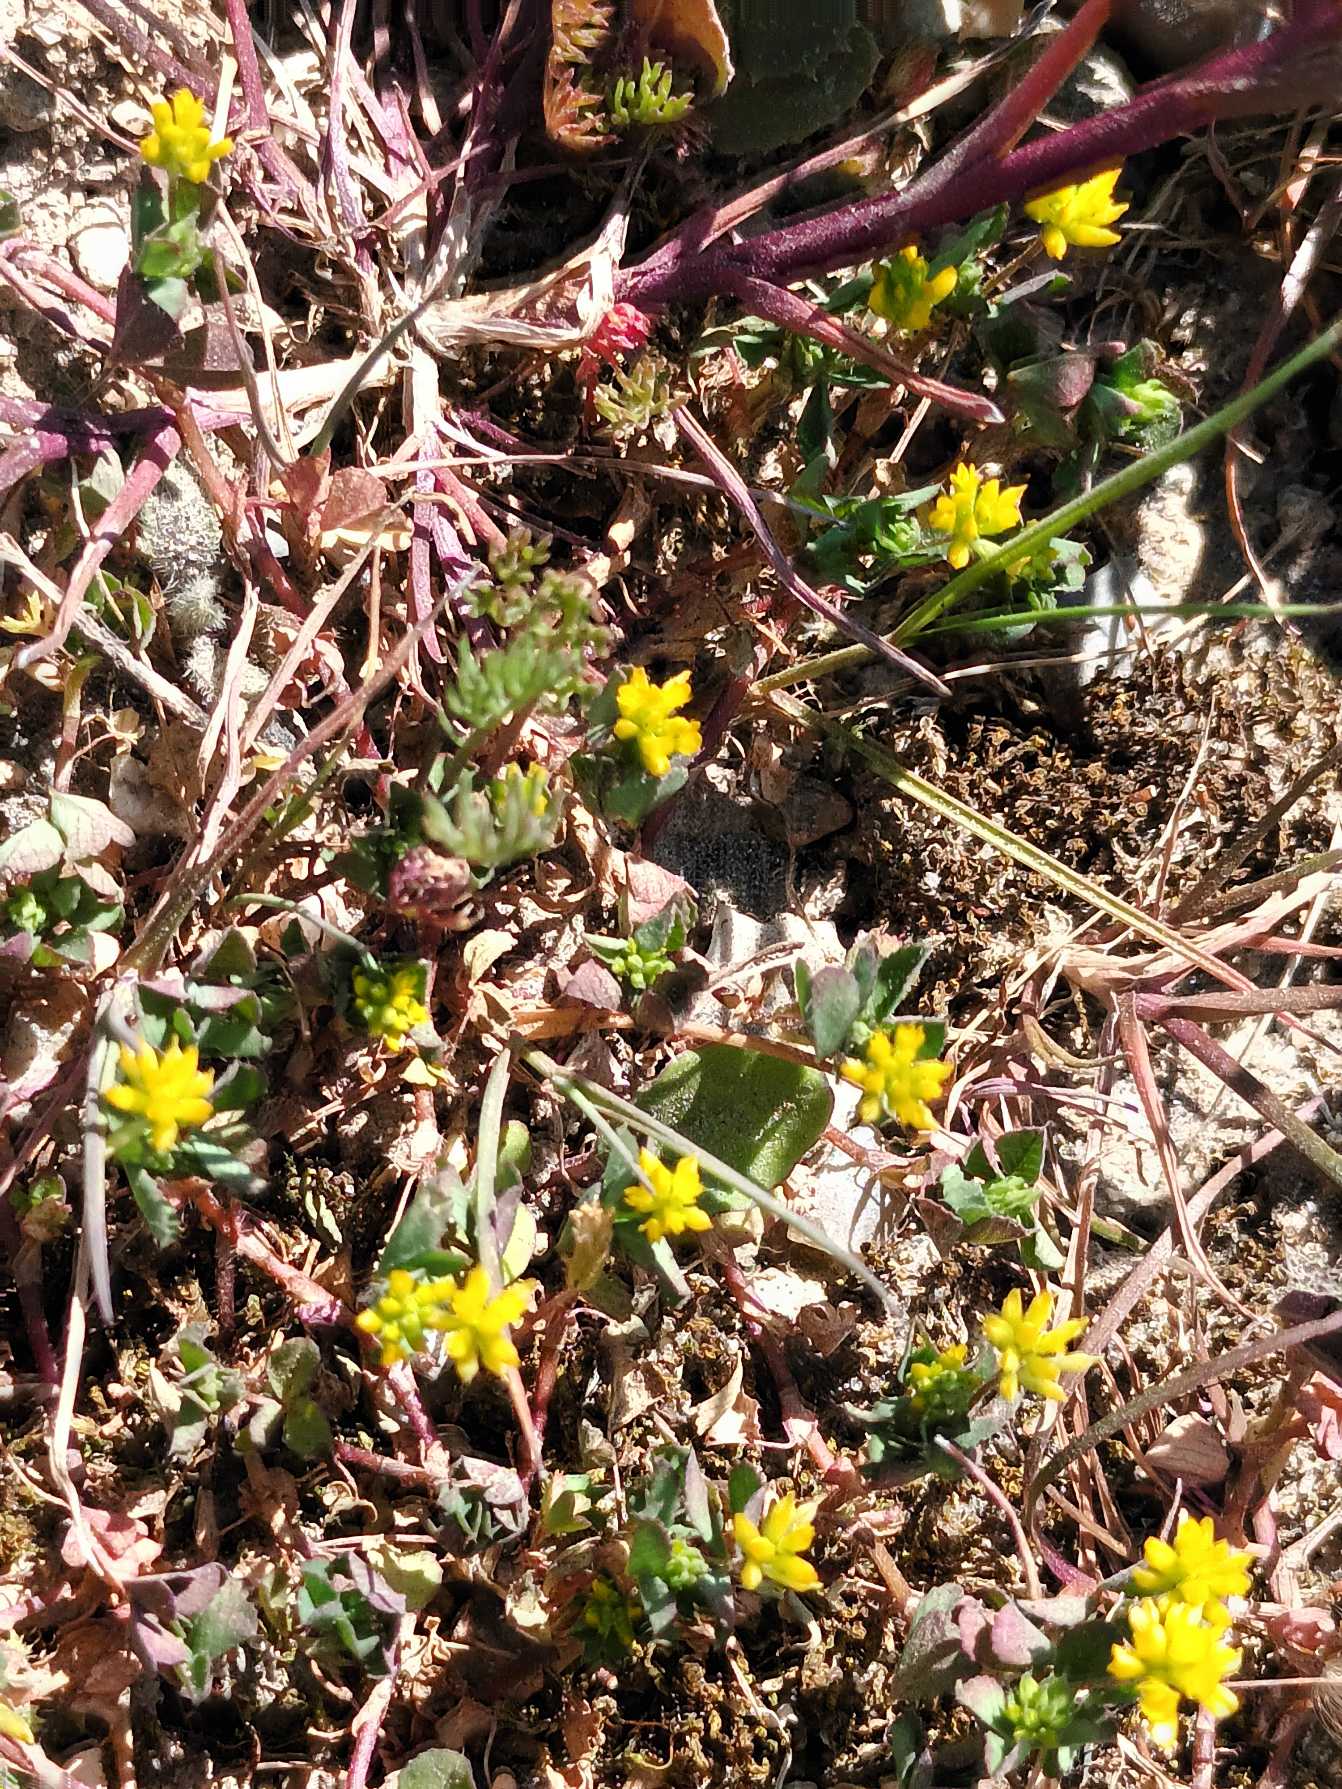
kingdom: Plantae
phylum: Tracheophyta
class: Magnoliopsida
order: Fabales
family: Fabaceae
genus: Trifolium
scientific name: Trifolium dubium
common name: Fin kløver
